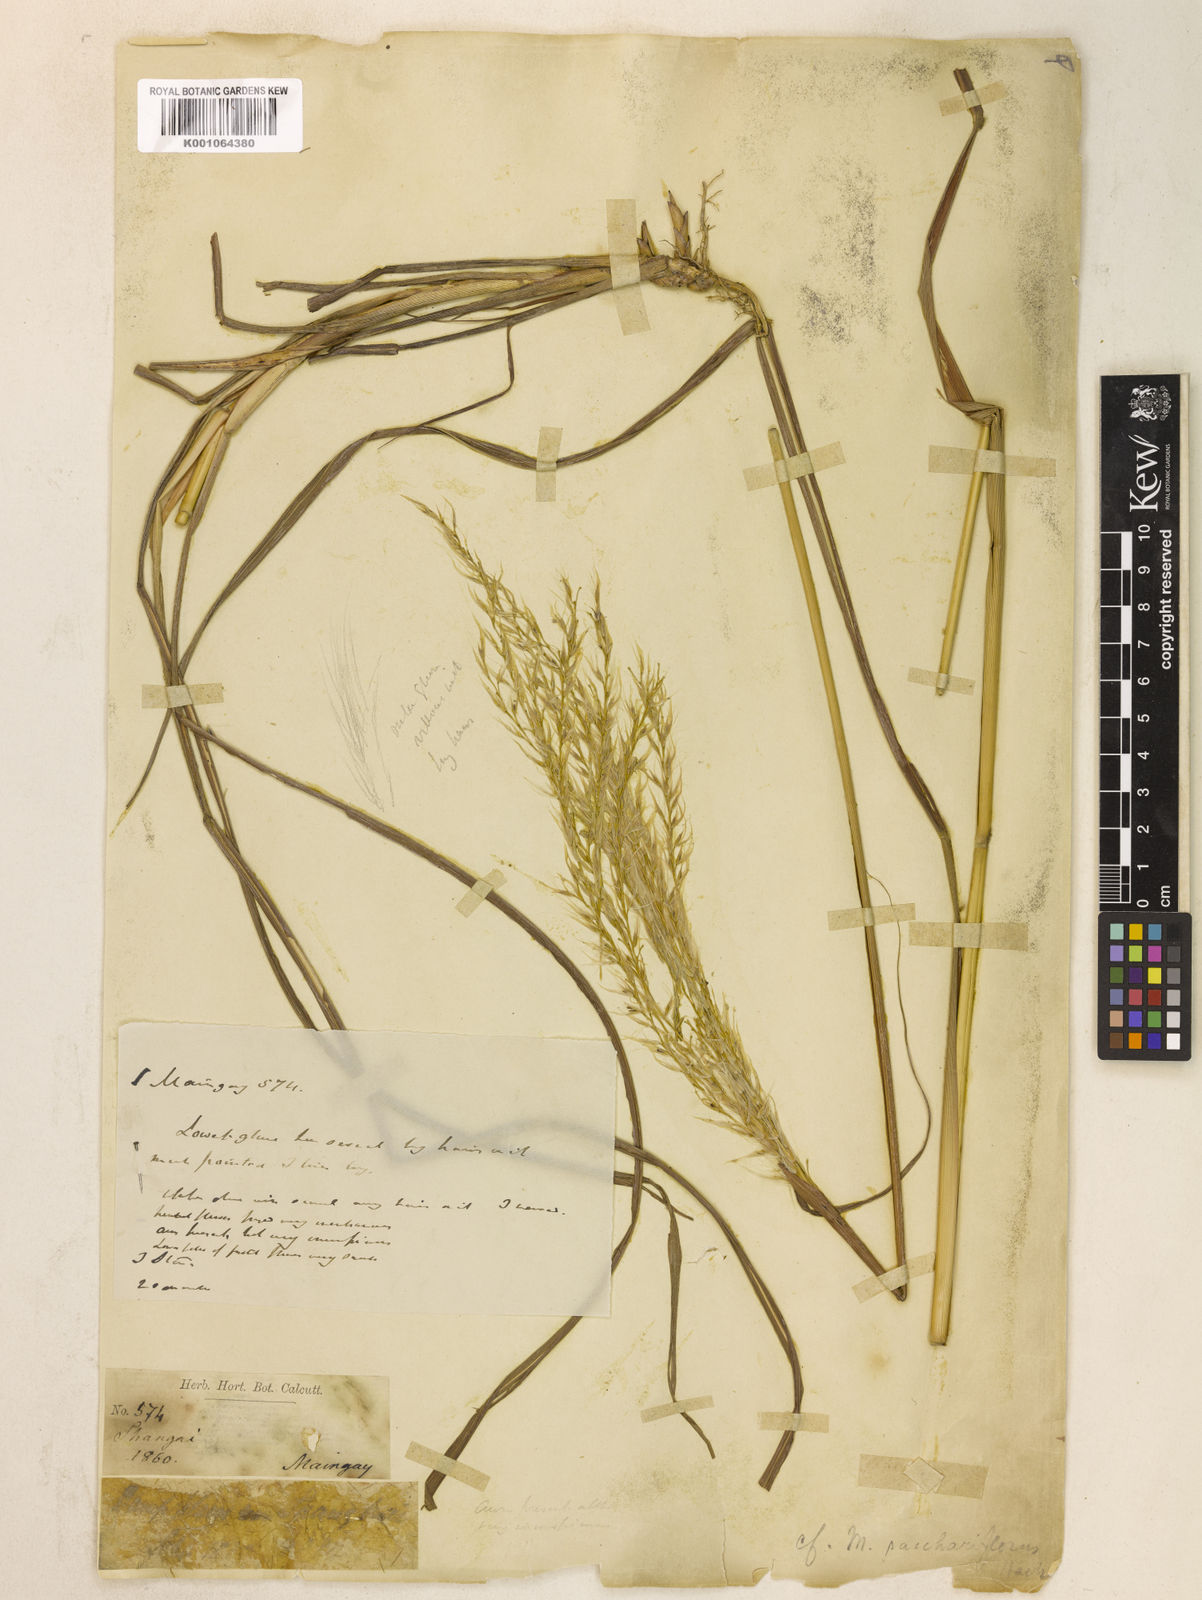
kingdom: Plantae
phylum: Tracheophyta
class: Liliopsida
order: Poales
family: Poaceae
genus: Miscanthus
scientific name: Miscanthus
